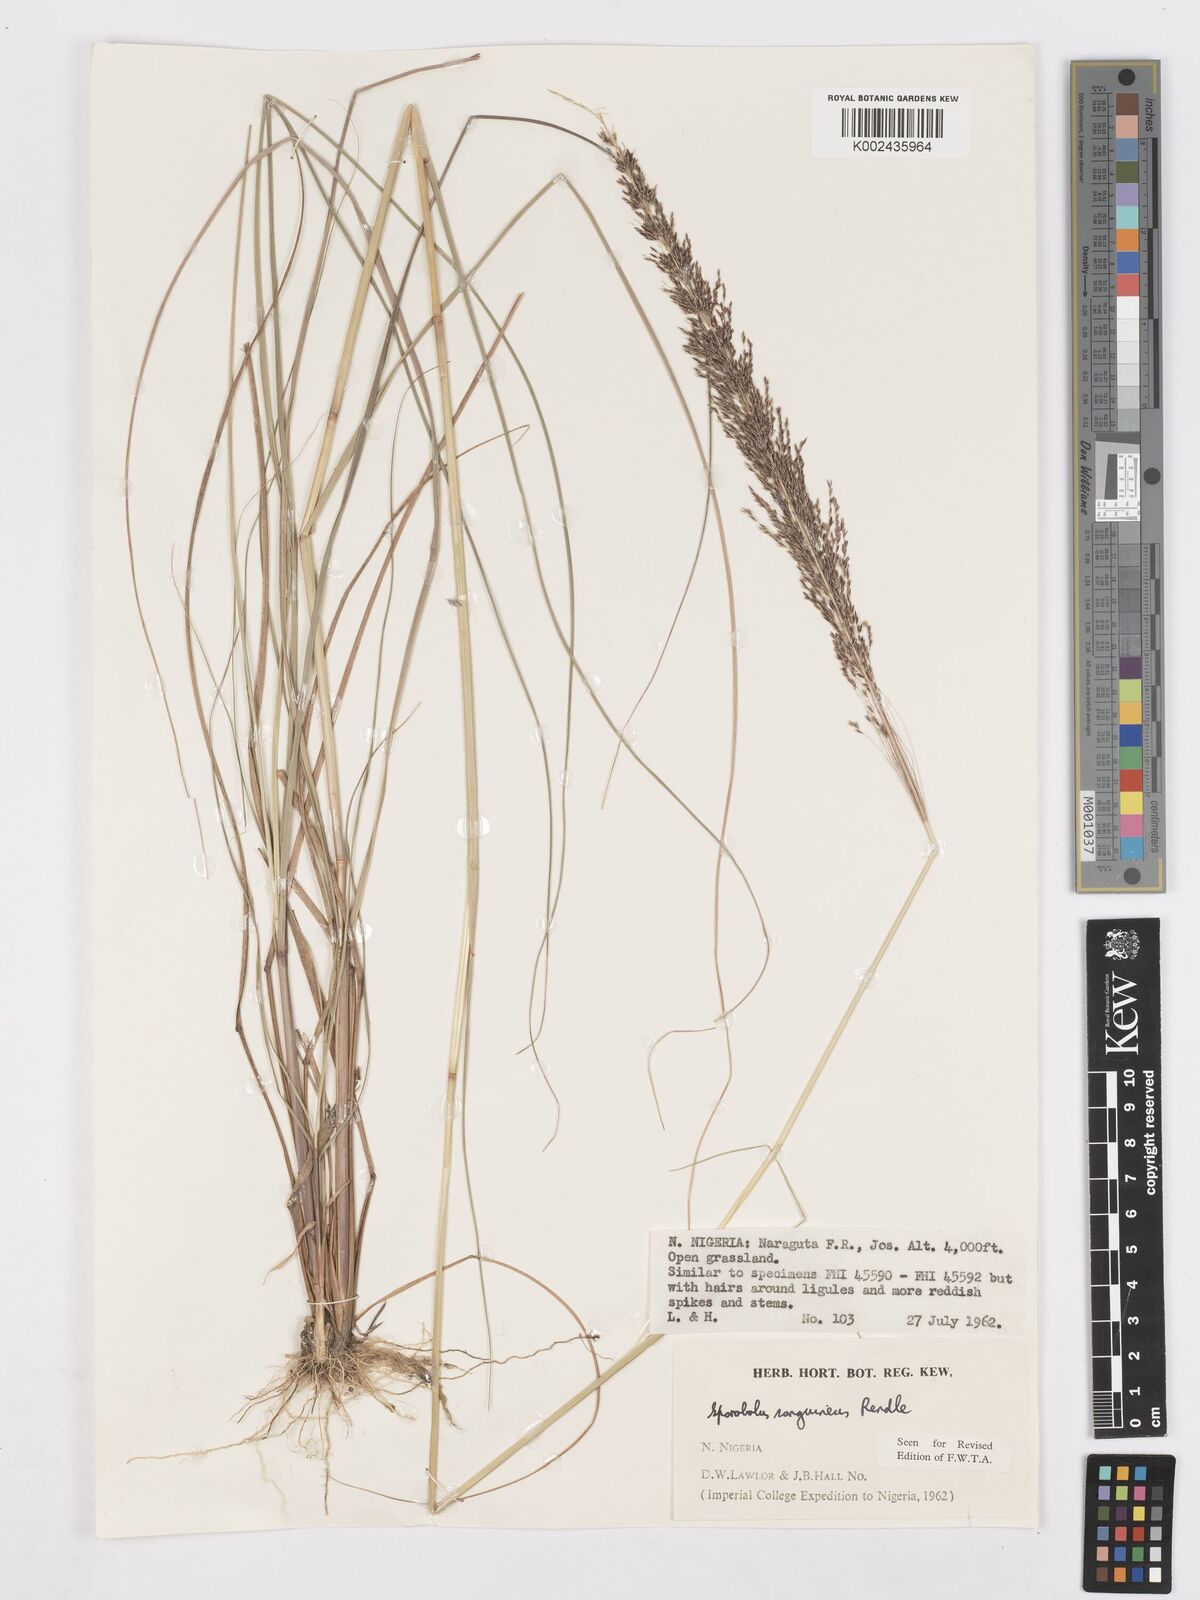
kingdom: Plantae
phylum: Tracheophyta
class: Liliopsida
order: Poales
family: Poaceae
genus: Sporobolus
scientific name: Sporobolus sanguineus
